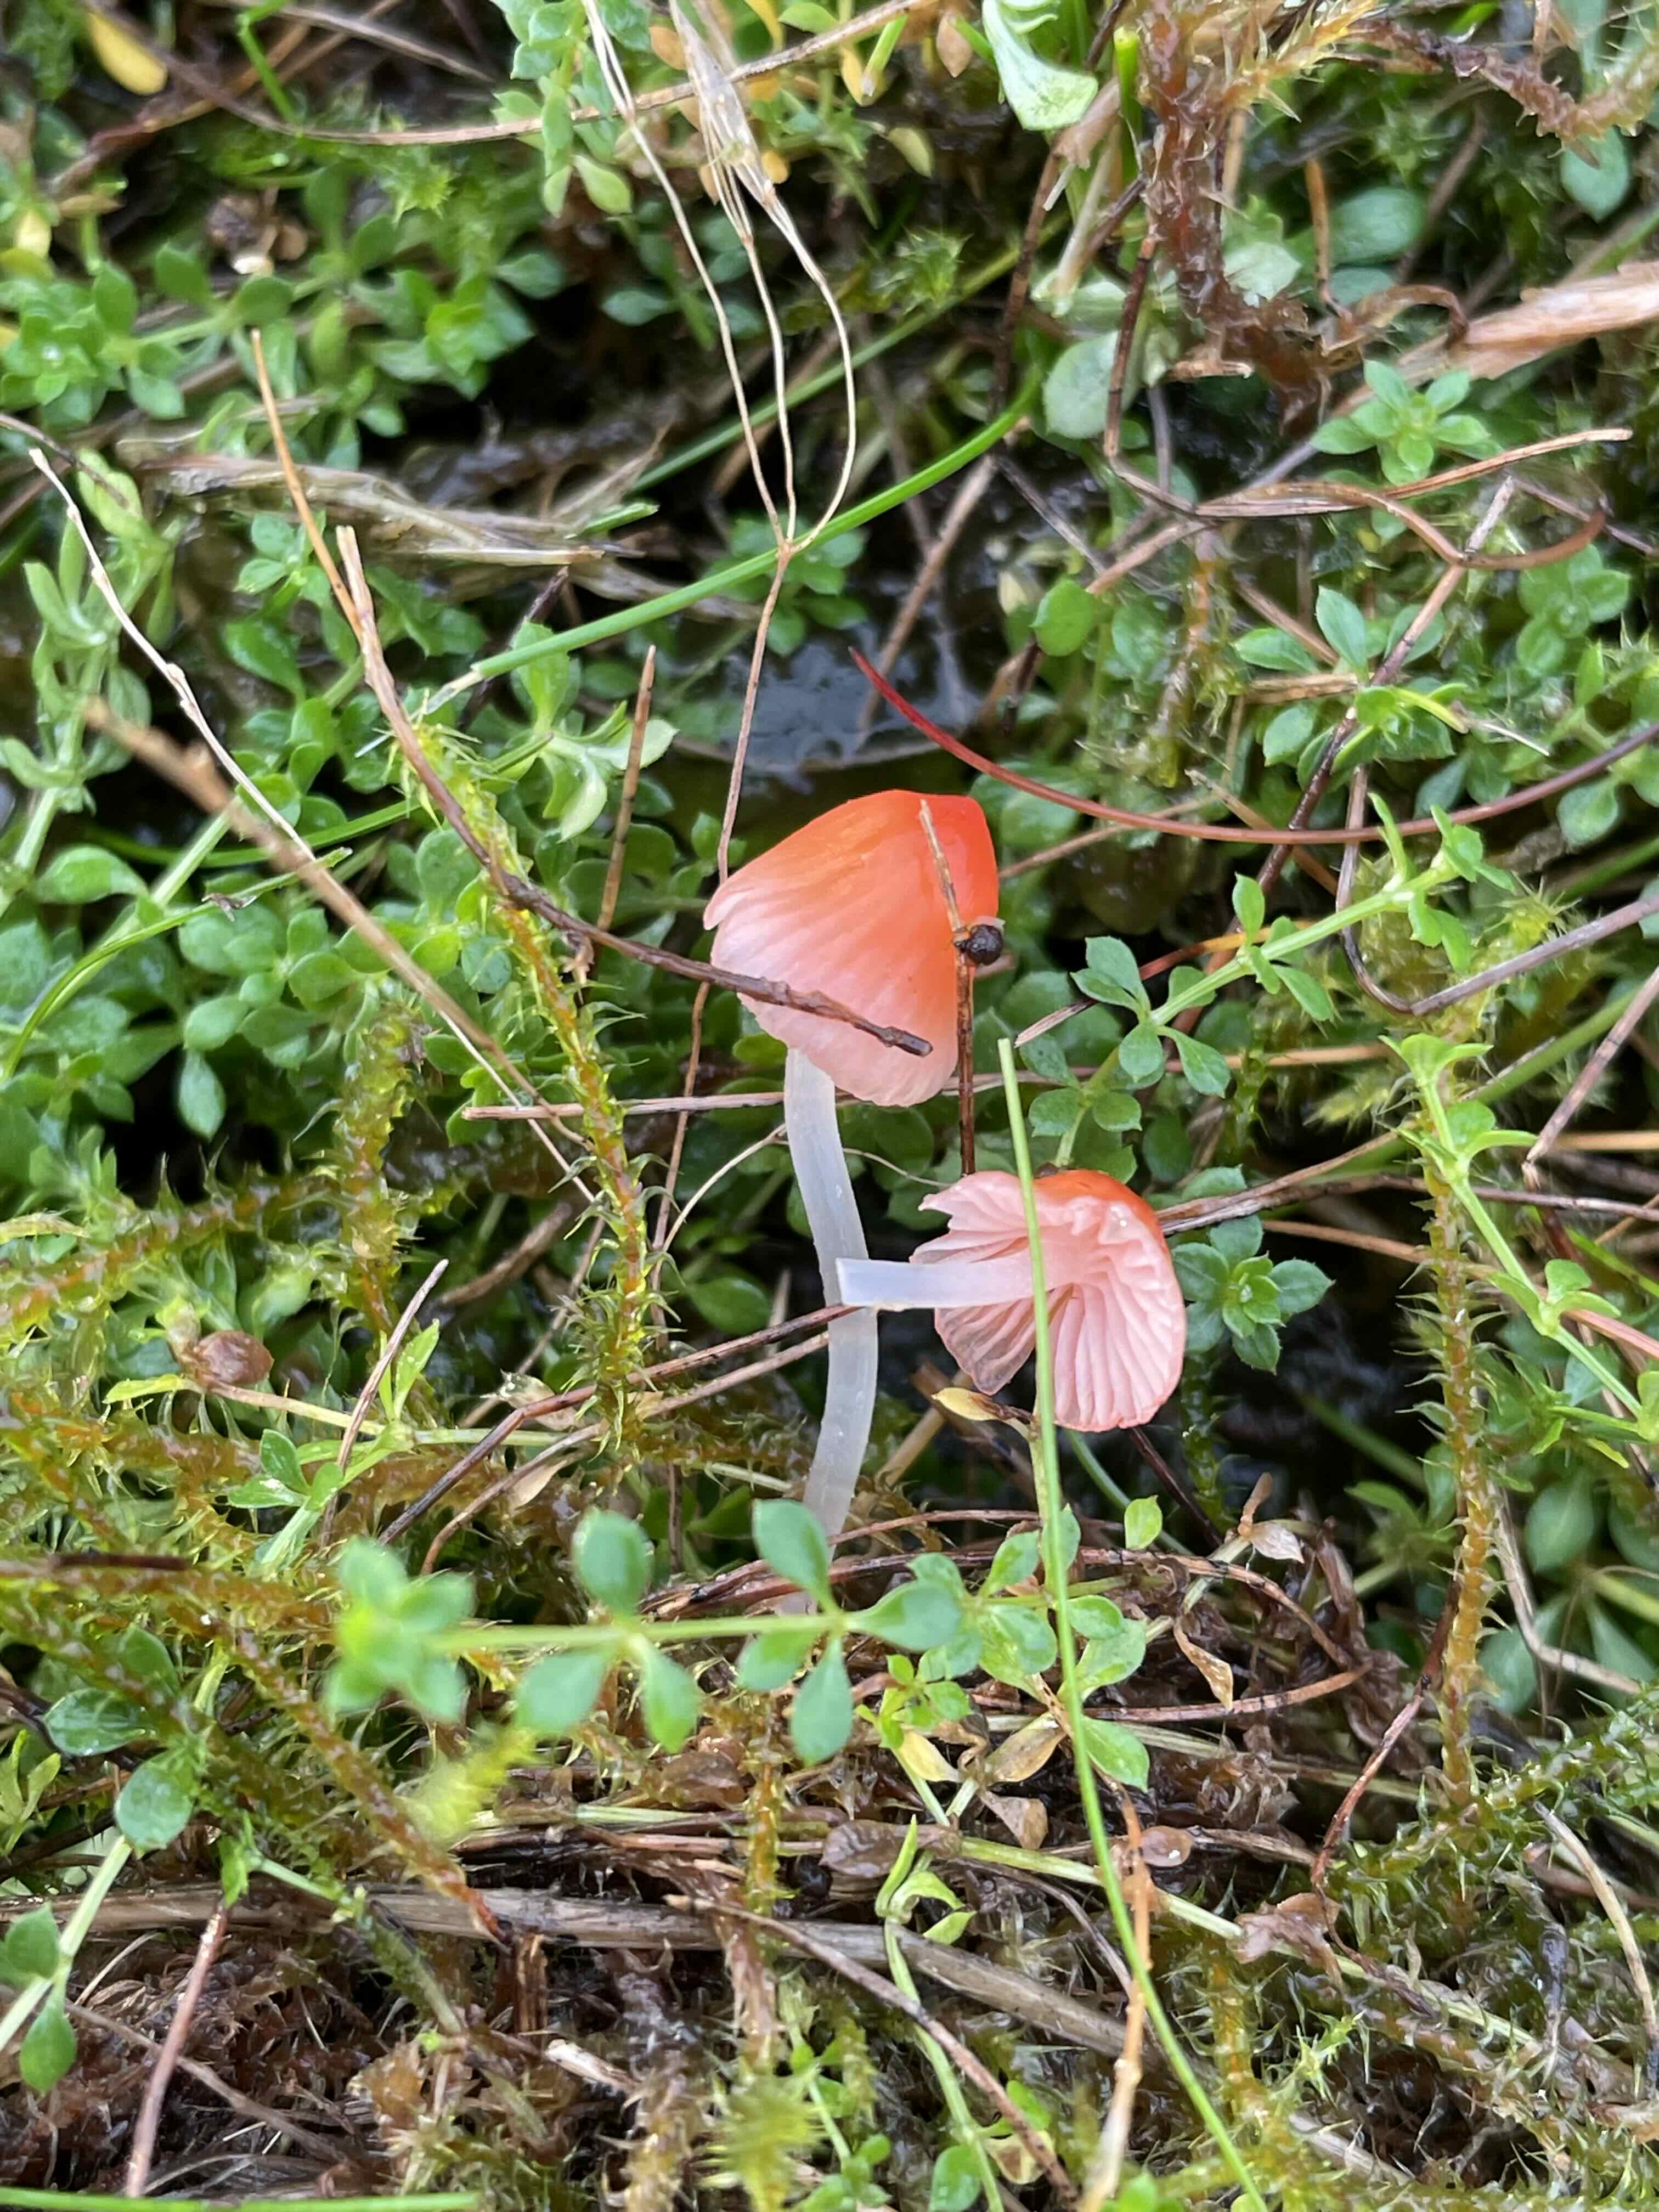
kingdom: Fungi
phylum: Basidiomycota
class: Agaricomycetes
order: Agaricales
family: Mycenaceae
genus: Atheniella
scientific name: Atheniella adonis
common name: rønnerød huesvamp
